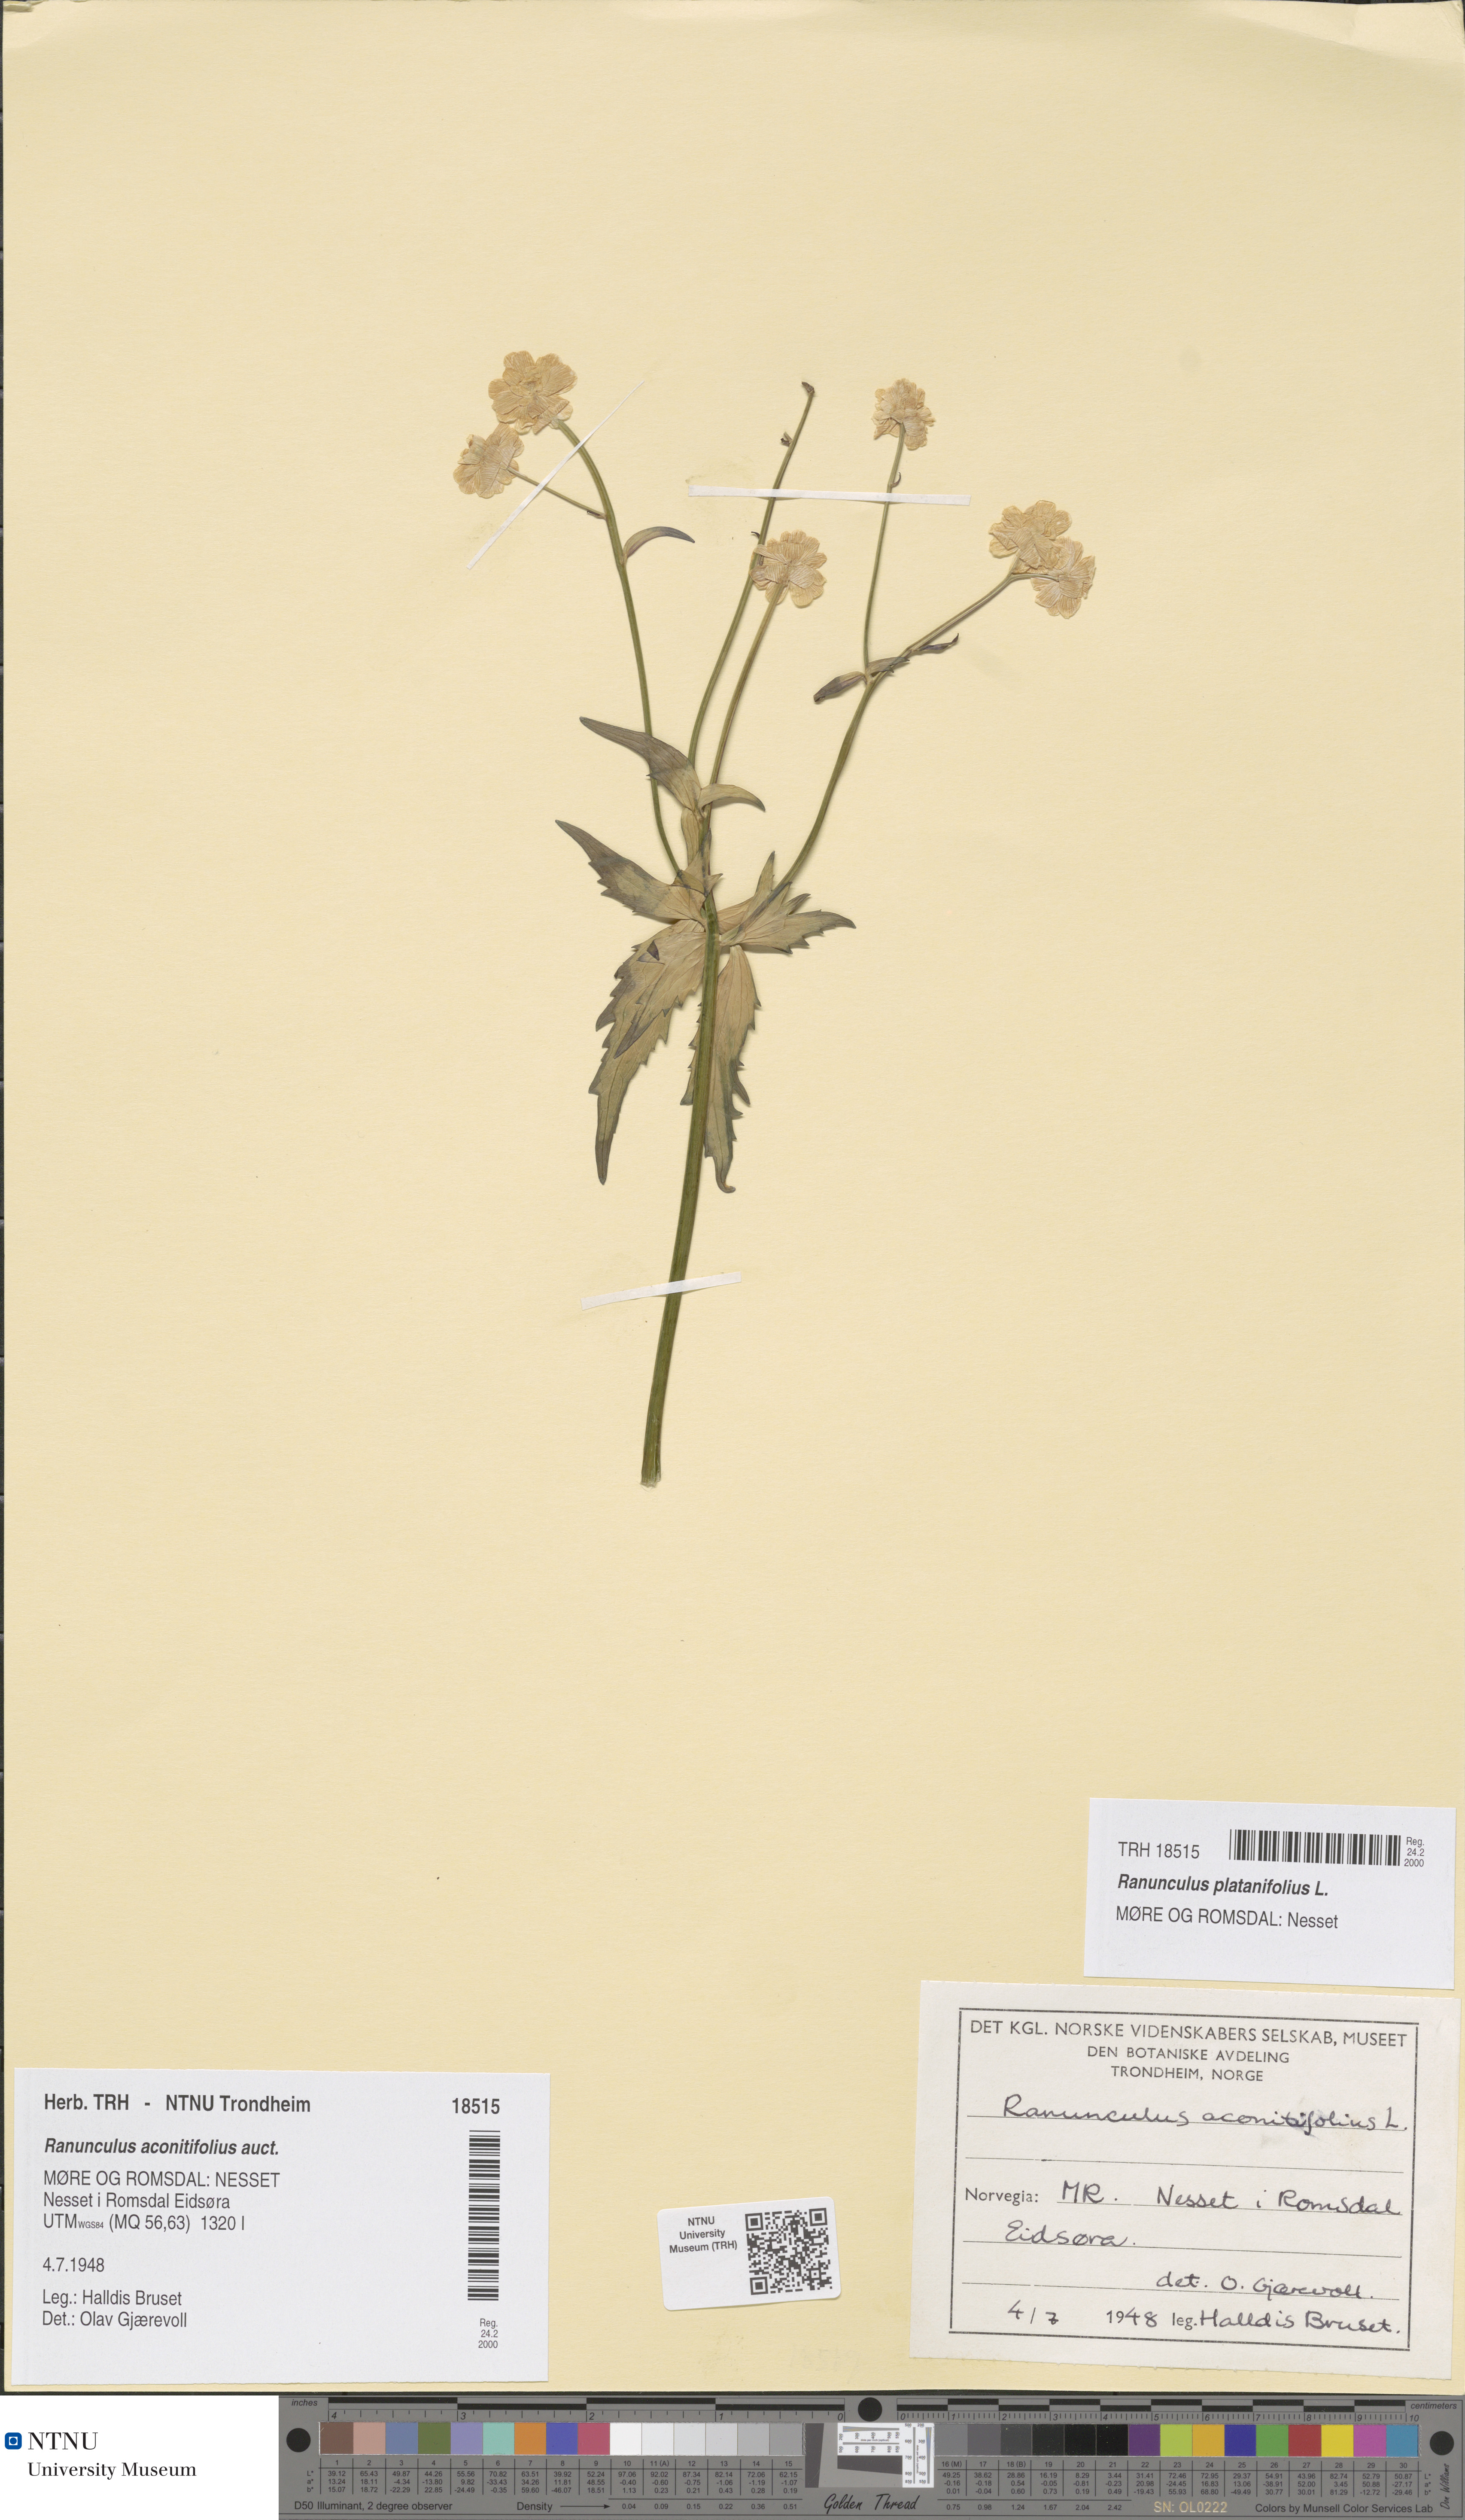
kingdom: Plantae
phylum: Tracheophyta
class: Magnoliopsida
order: Ranunculales
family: Ranunculaceae
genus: Ranunculus
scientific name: Ranunculus platanifolius
